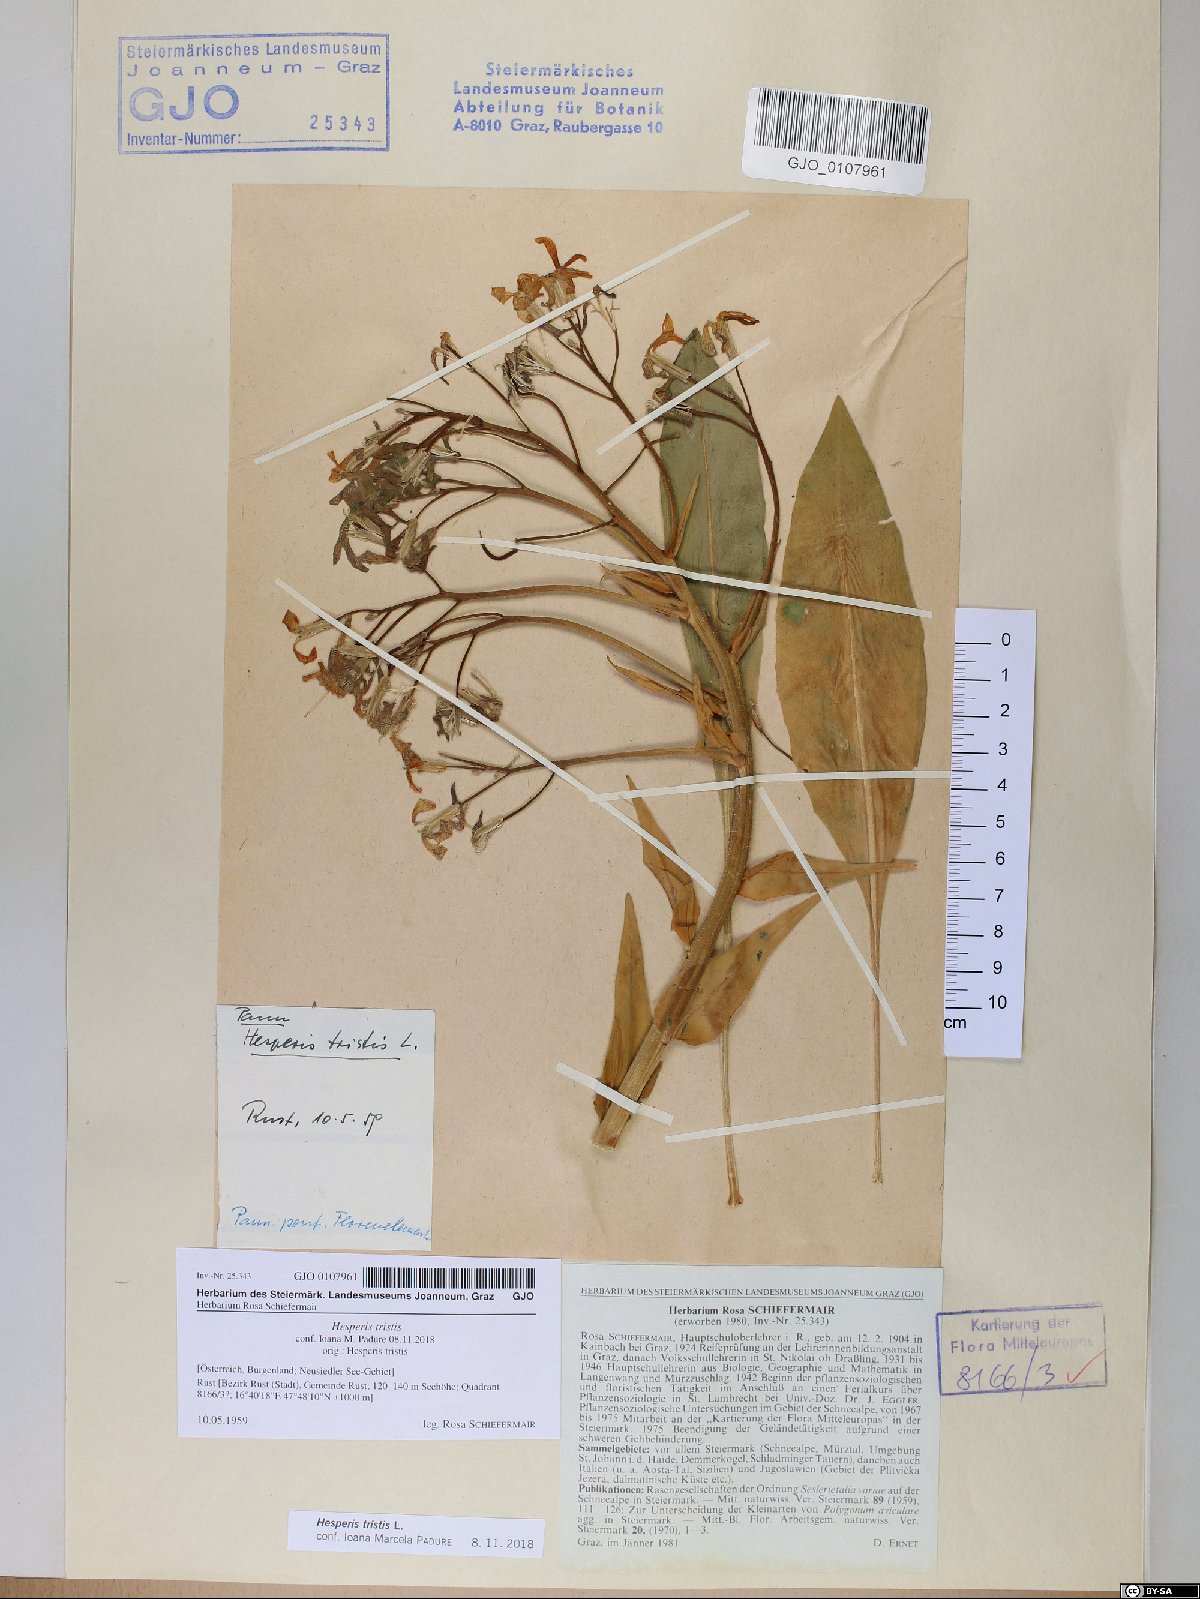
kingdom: Plantae
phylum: Tracheophyta
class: Magnoliopsida
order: Brassicales
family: Brassicaceae
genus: Hesperis
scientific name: Hesperis tristis
